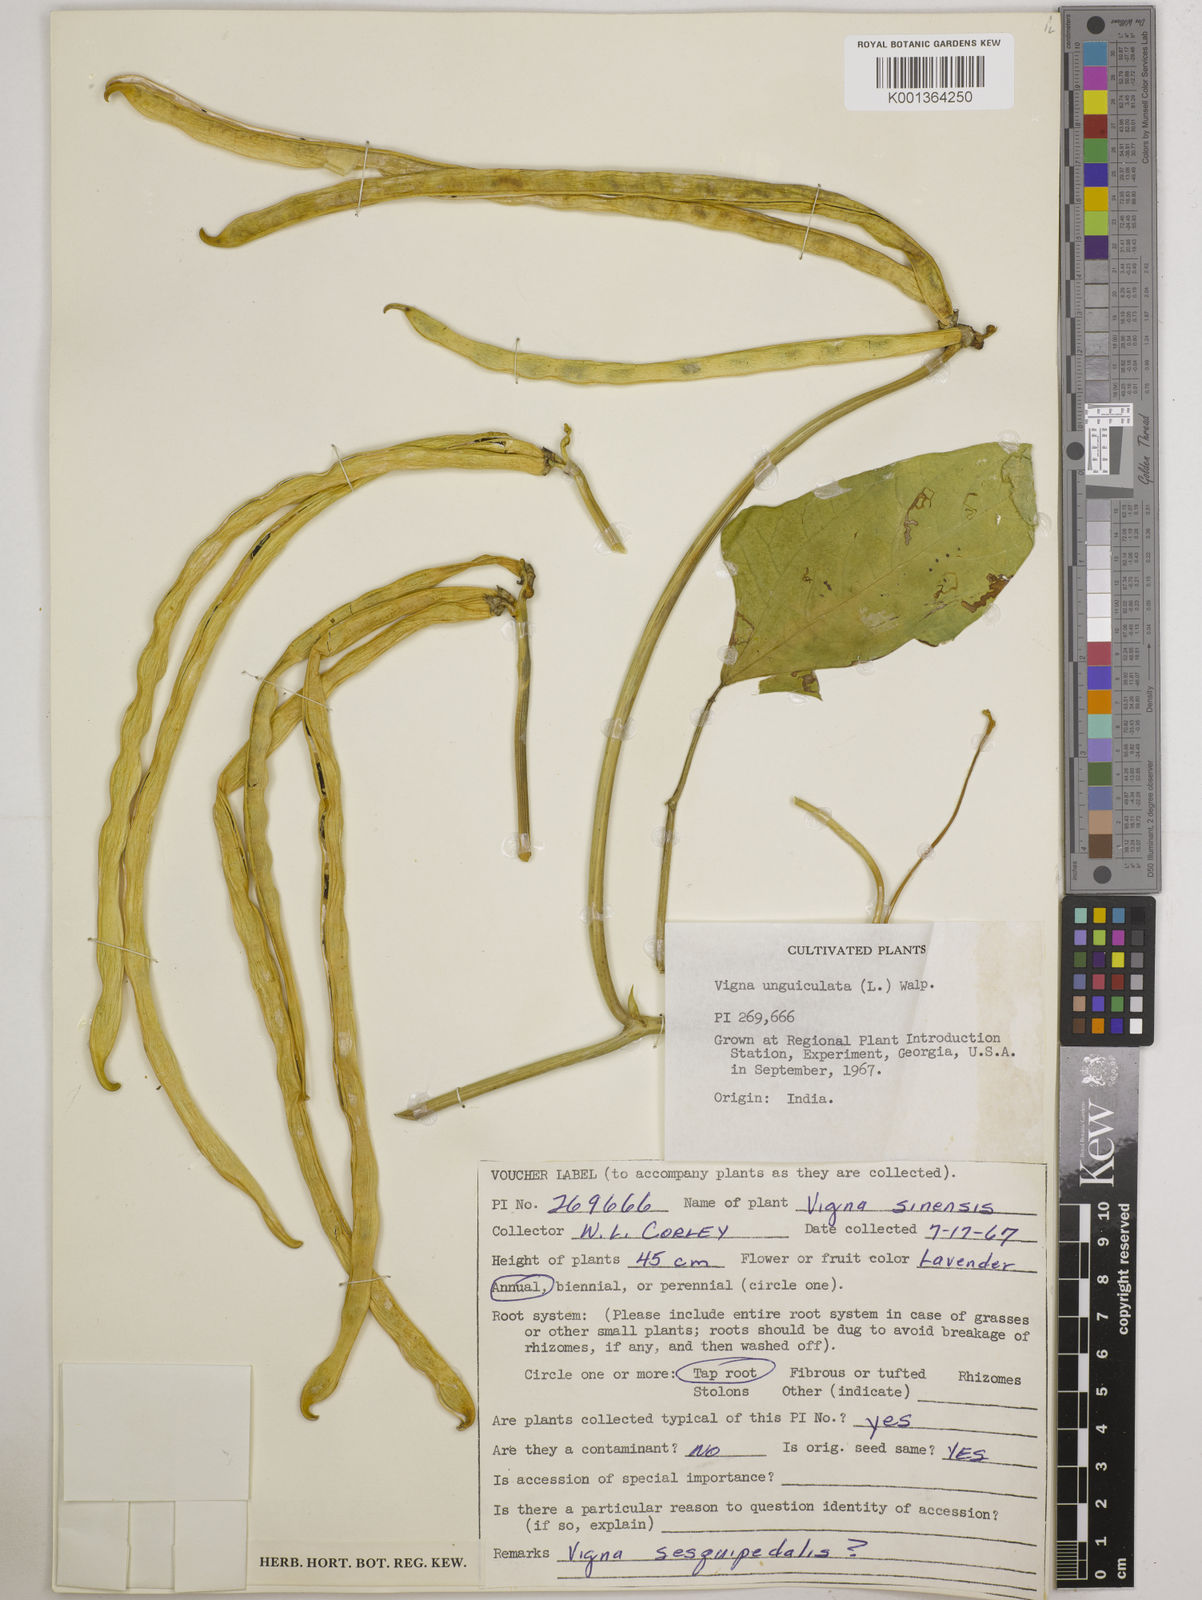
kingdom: Plantae
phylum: Tracheophyta
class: Magnoliopsida
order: Fabales
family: Fabaceae
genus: Vigna
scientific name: Vigna unguiculata
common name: Cowpea
